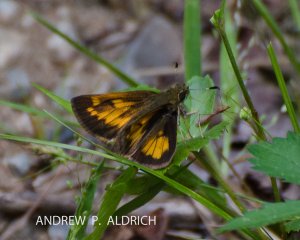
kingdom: Animalia
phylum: Arthropoda
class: Insecta
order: Lepidoptera
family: Hesperiidae
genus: Lon
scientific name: Lon hobomok
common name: Hobomok Skipper
